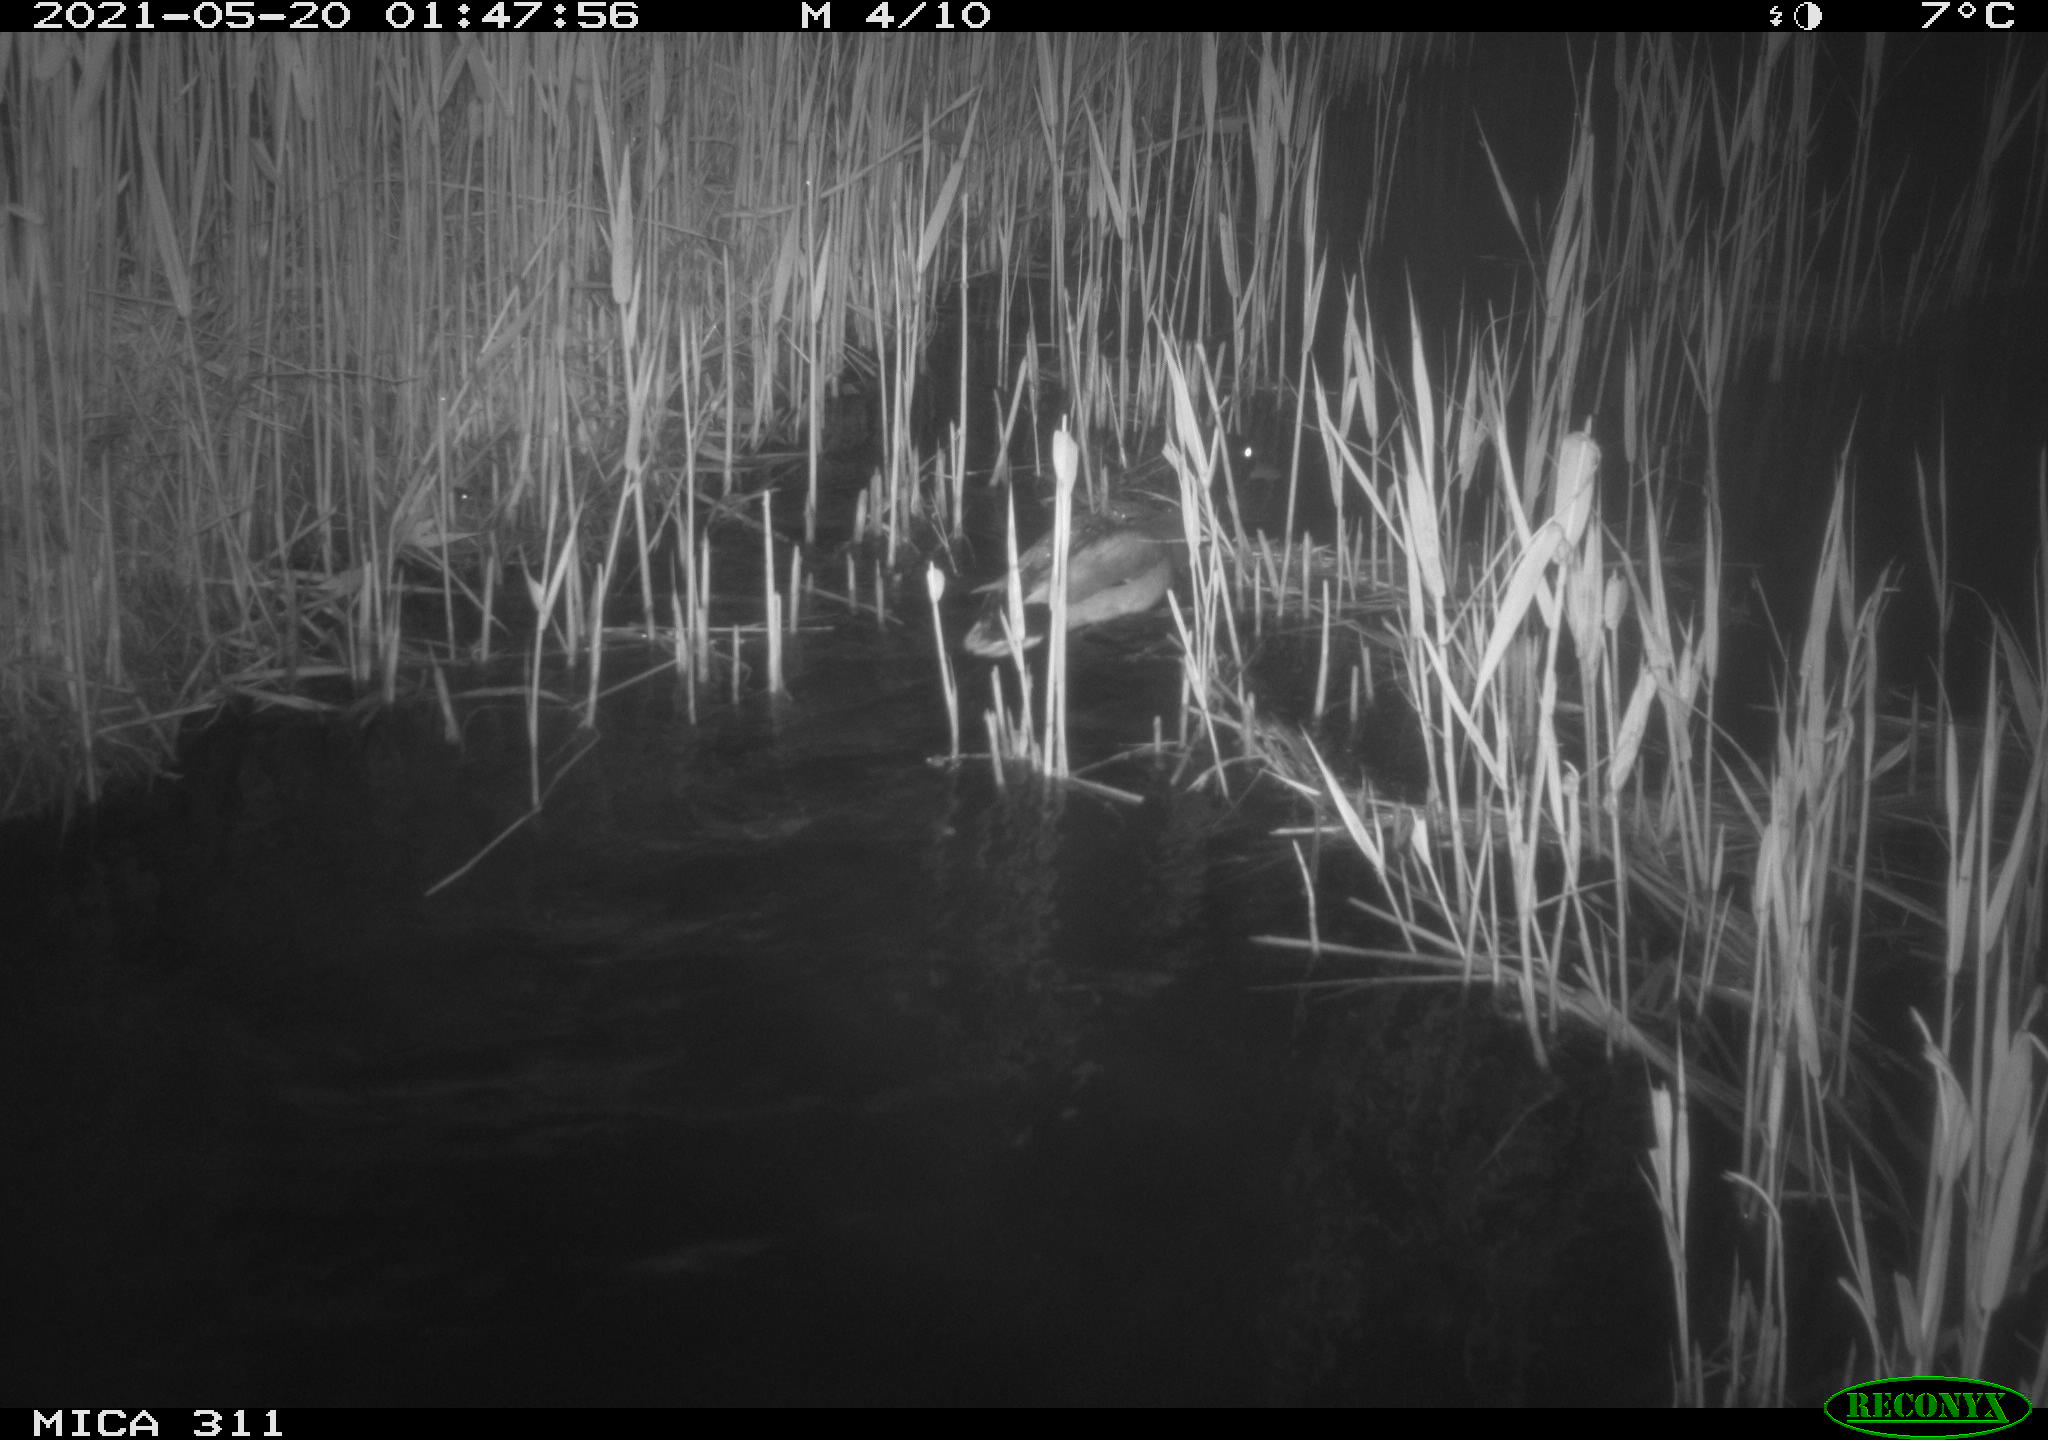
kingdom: Animalia
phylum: Chordata
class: Aves
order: Anseriformes
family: Anatidae
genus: Anas
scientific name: Anas platyrhynchos
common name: Mallard
